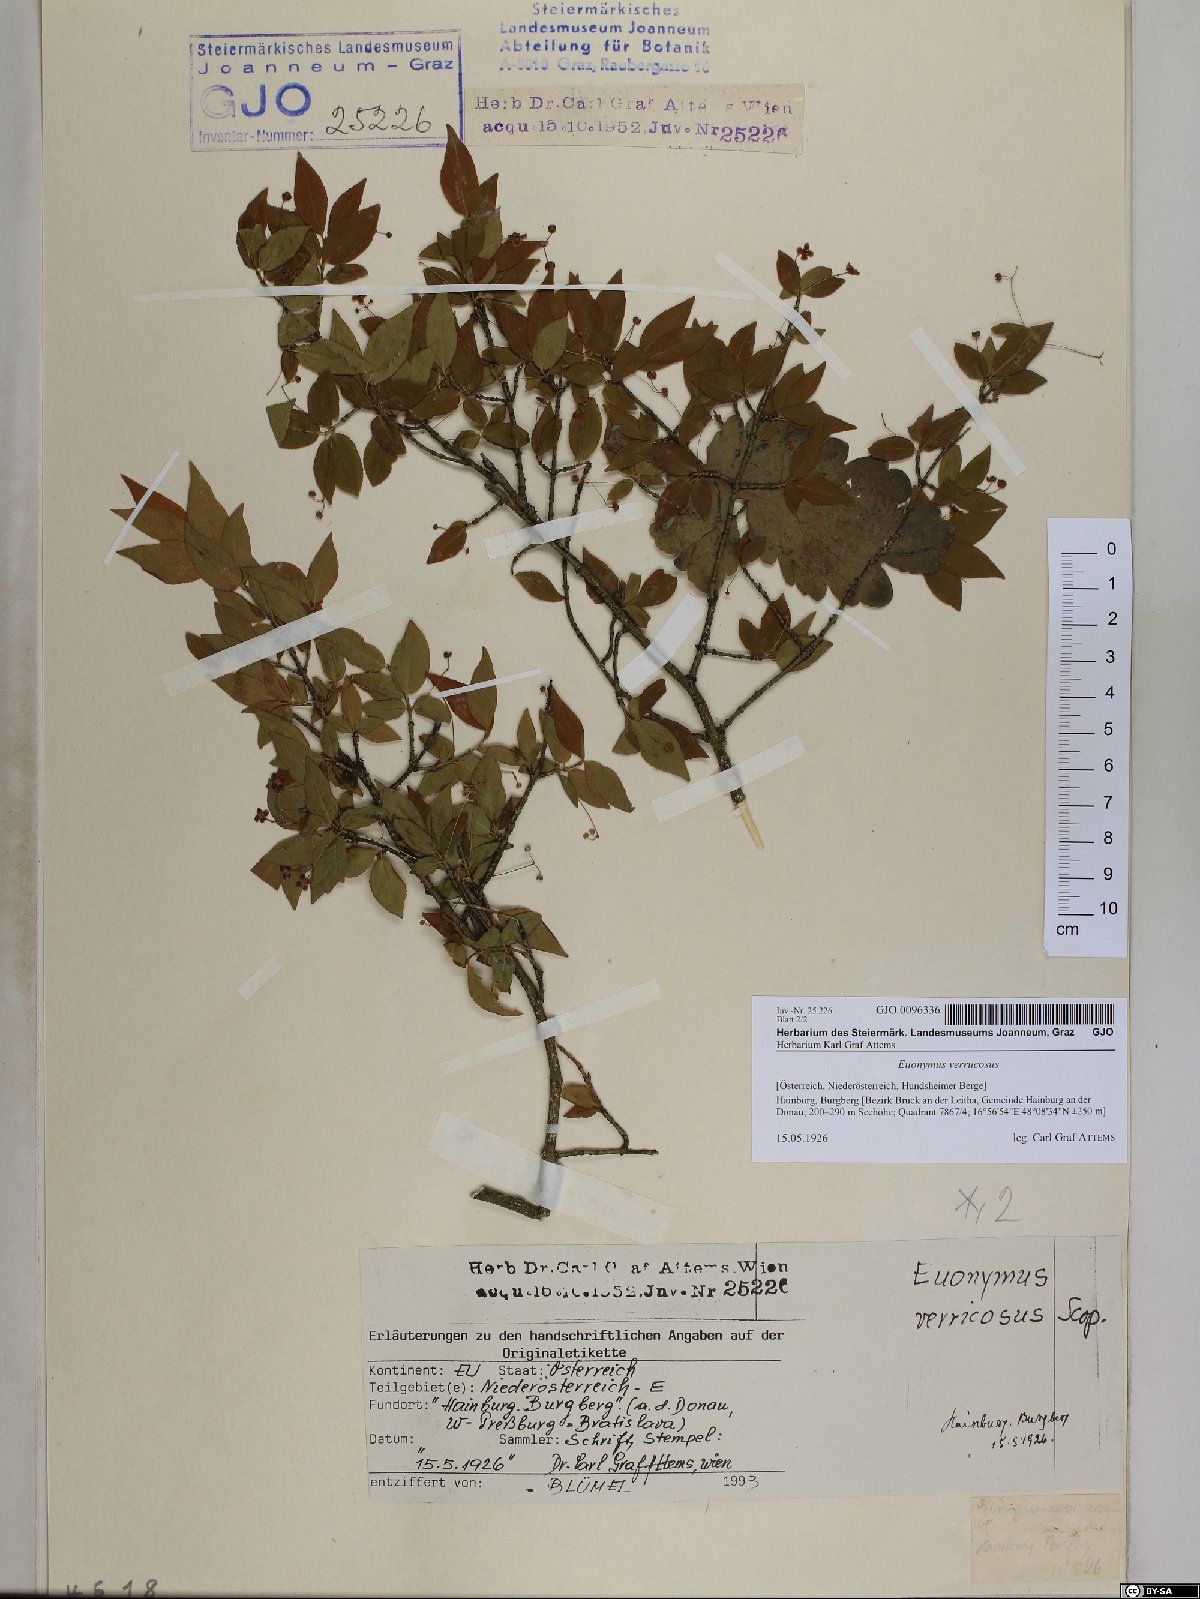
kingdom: Plantae
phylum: Tracheophyta
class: Magnoliopsida
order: Celastrales
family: Celastraceae
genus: Euonymus
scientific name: Euonymus verrucosus
